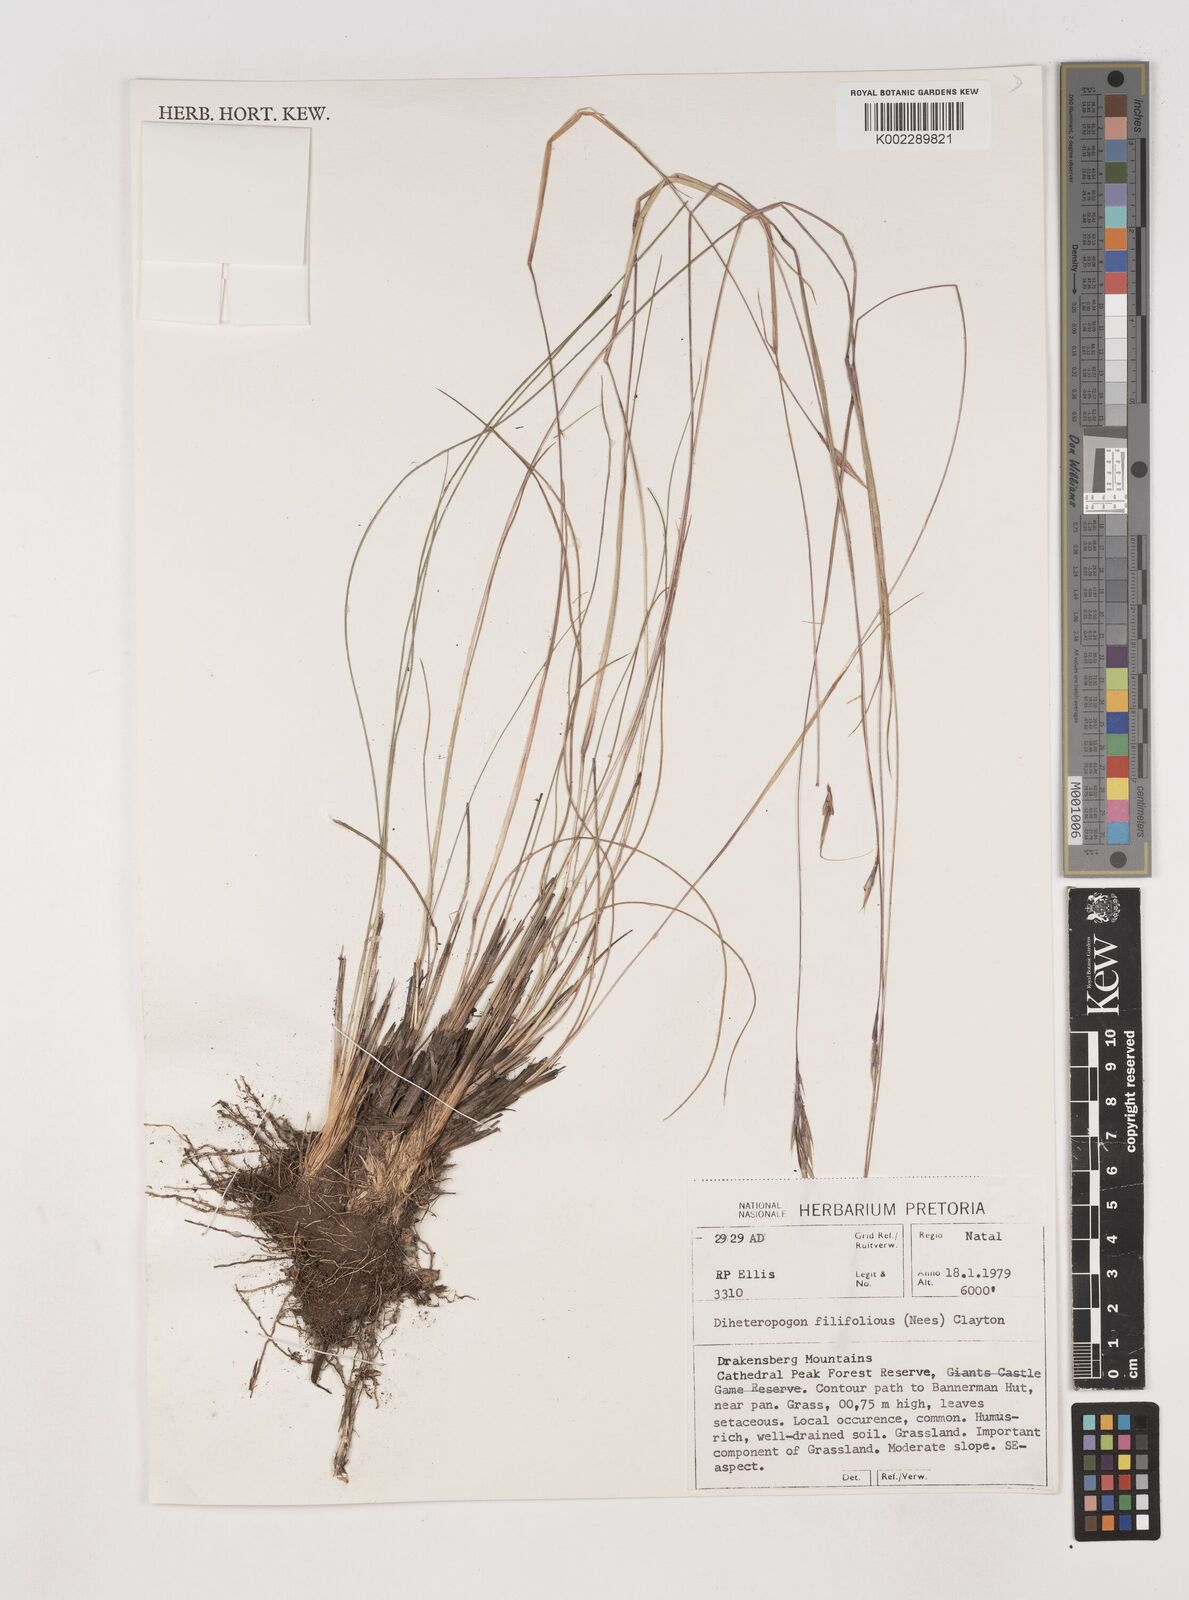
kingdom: Plantae
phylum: Tracheophyta
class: Liliopsida
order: Poales
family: Poaceae
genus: Diheteropogon
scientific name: Diheteropogon filifolius
